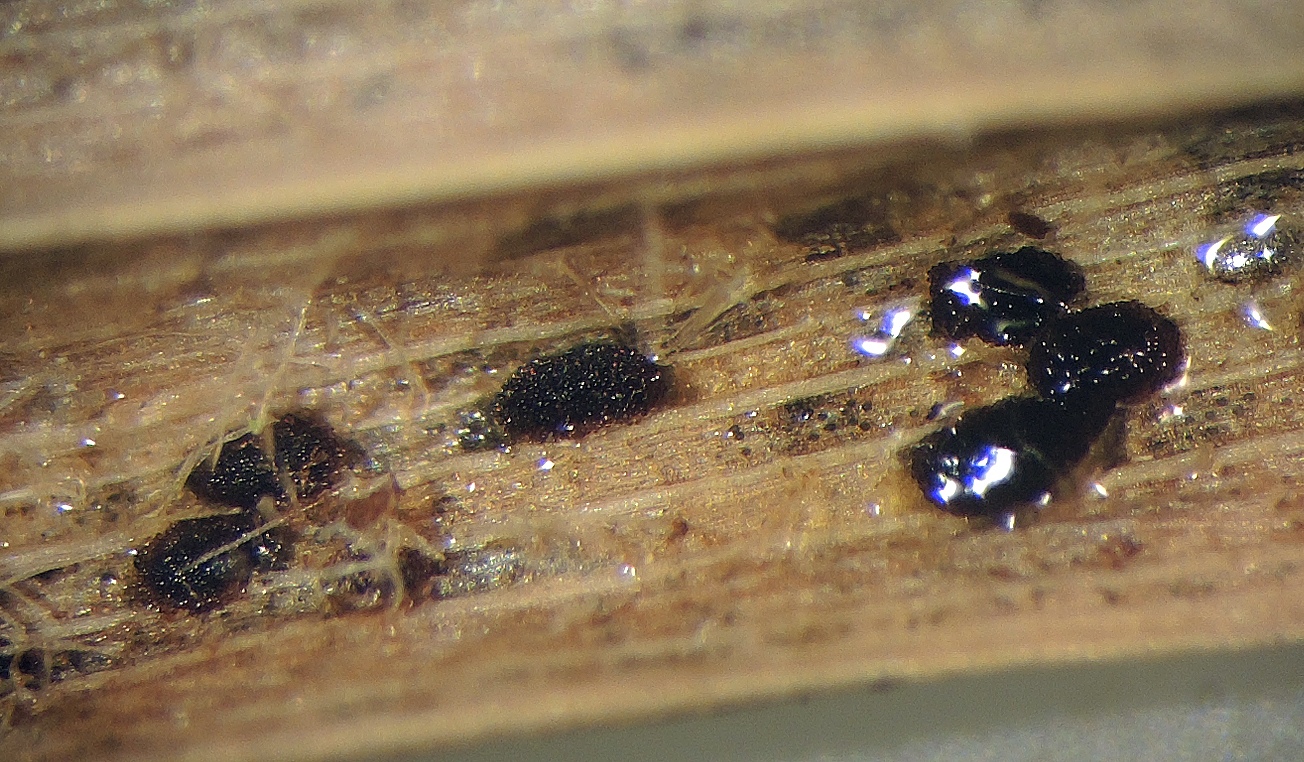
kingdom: Fungi
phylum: Basidiomycota
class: Pucciniomycetes
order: Pucciniales
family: Pucciniaceae
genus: Puccinia
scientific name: Puccinia urticata
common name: Nettle clustercup rust fungus
